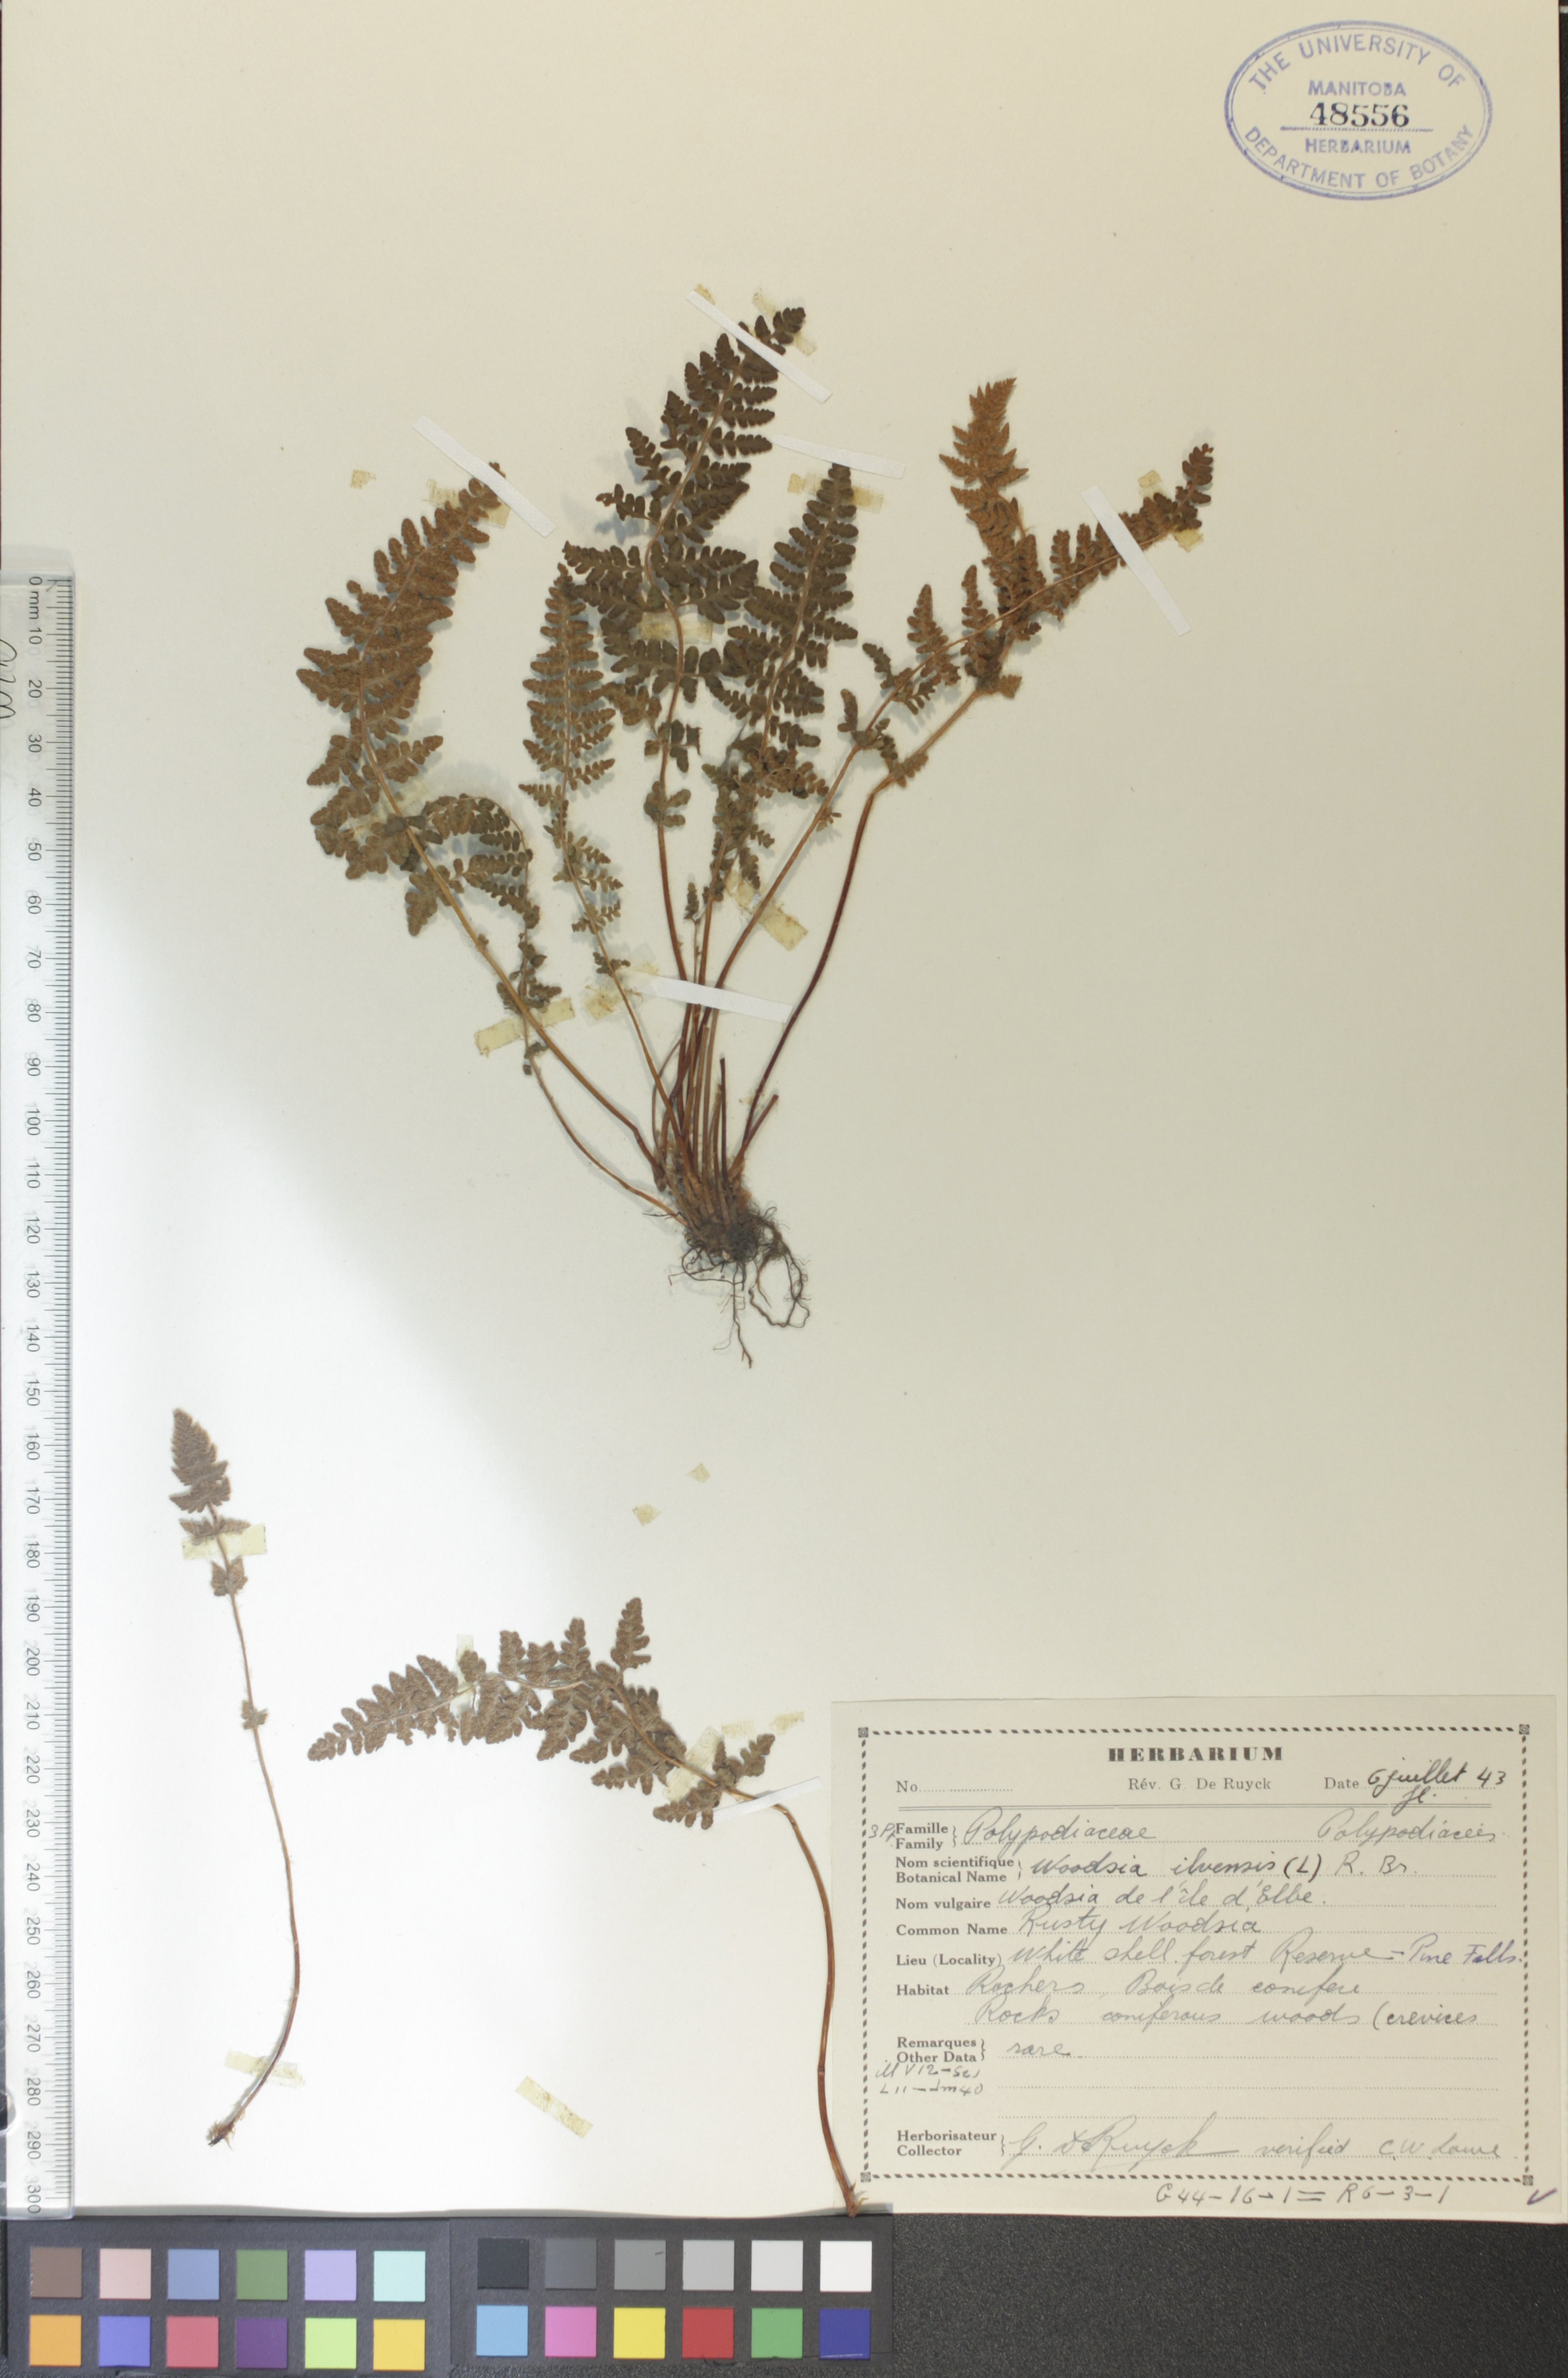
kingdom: Plantae
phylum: Tracheophyta
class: Polypodiopsida
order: Polypodiales
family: Woodsiaceae
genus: Woodsia
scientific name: Woodsia ilvensis
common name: Fragrant woodsia
